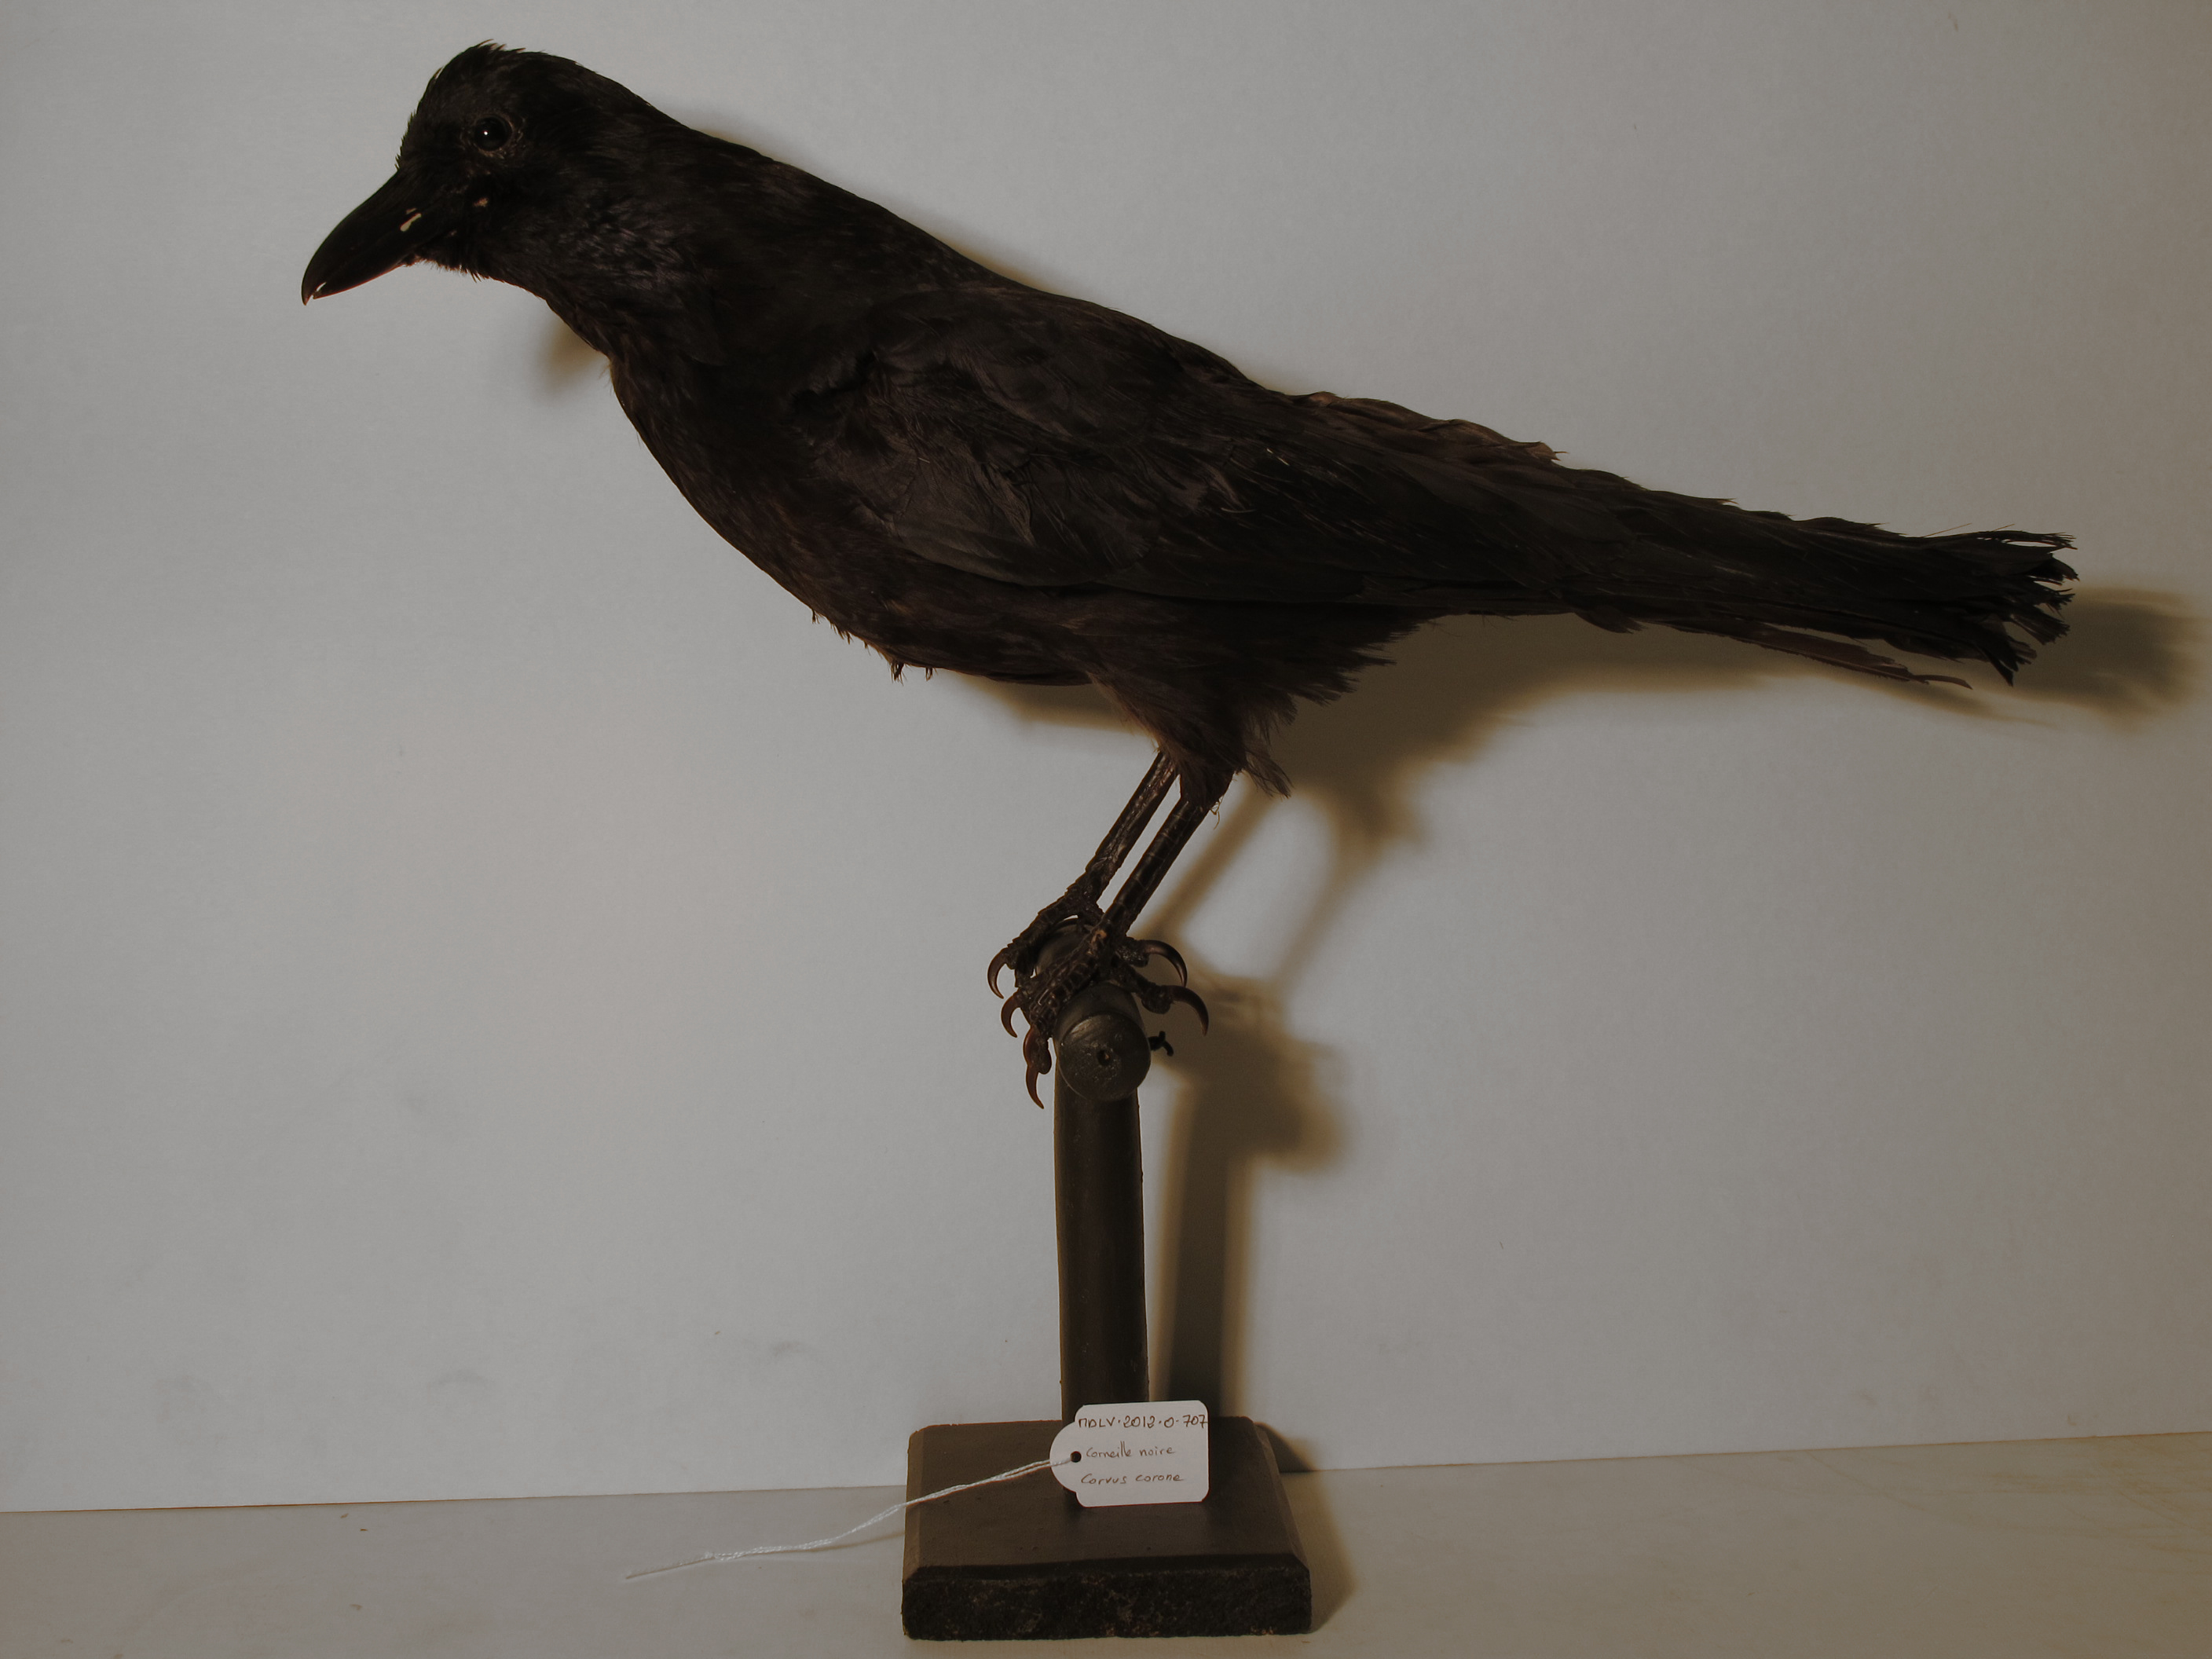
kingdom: Animalia
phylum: Chordata
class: Aves
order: Passeriformes
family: Corvidae
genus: Corvus
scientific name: Corvus corone
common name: Carrion Crow
